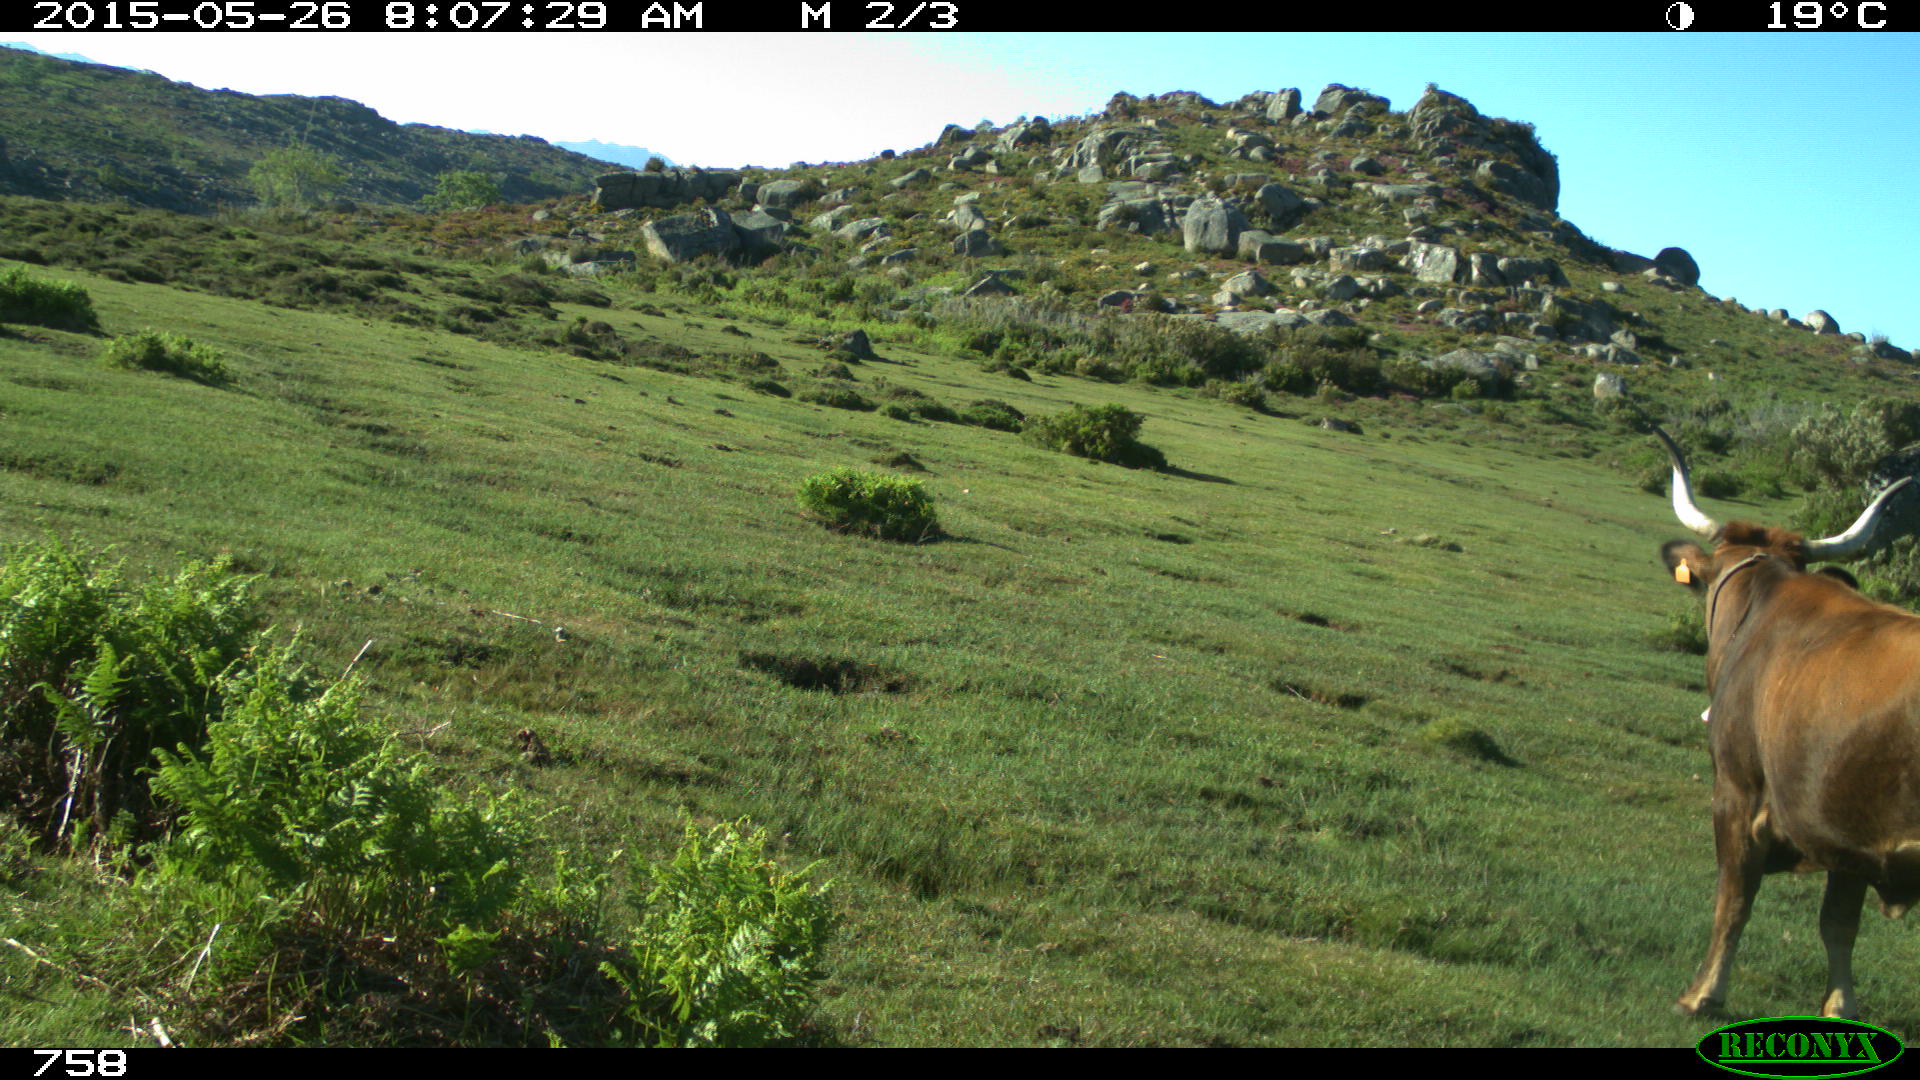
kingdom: Animalia
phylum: Chordata
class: Mammalia
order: Artiodactyla
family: Bovidae
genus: Bos
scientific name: Bos taurus
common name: Domesticated cattle
